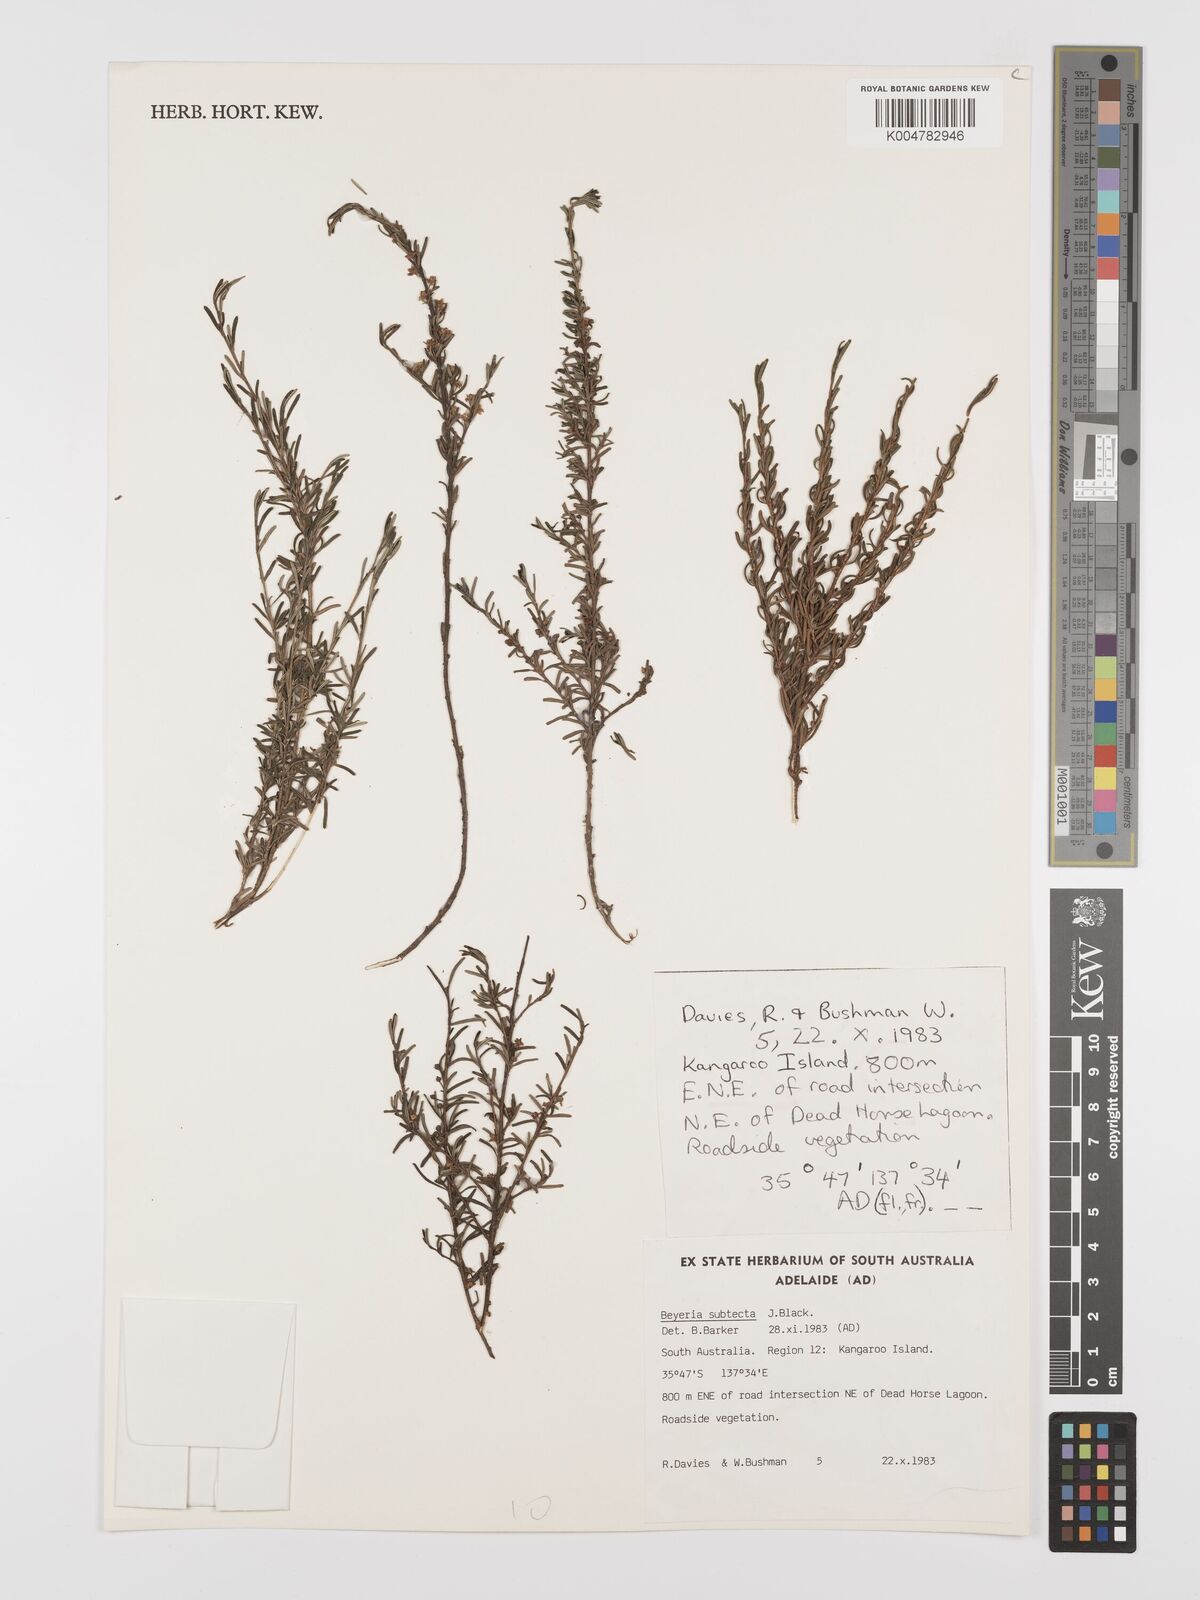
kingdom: Plantae
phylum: Tracheophyta
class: Magnoliopsida
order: Malpighiales
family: Euphorbiaceae
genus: Beyeria
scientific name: Beyeria subtecta
